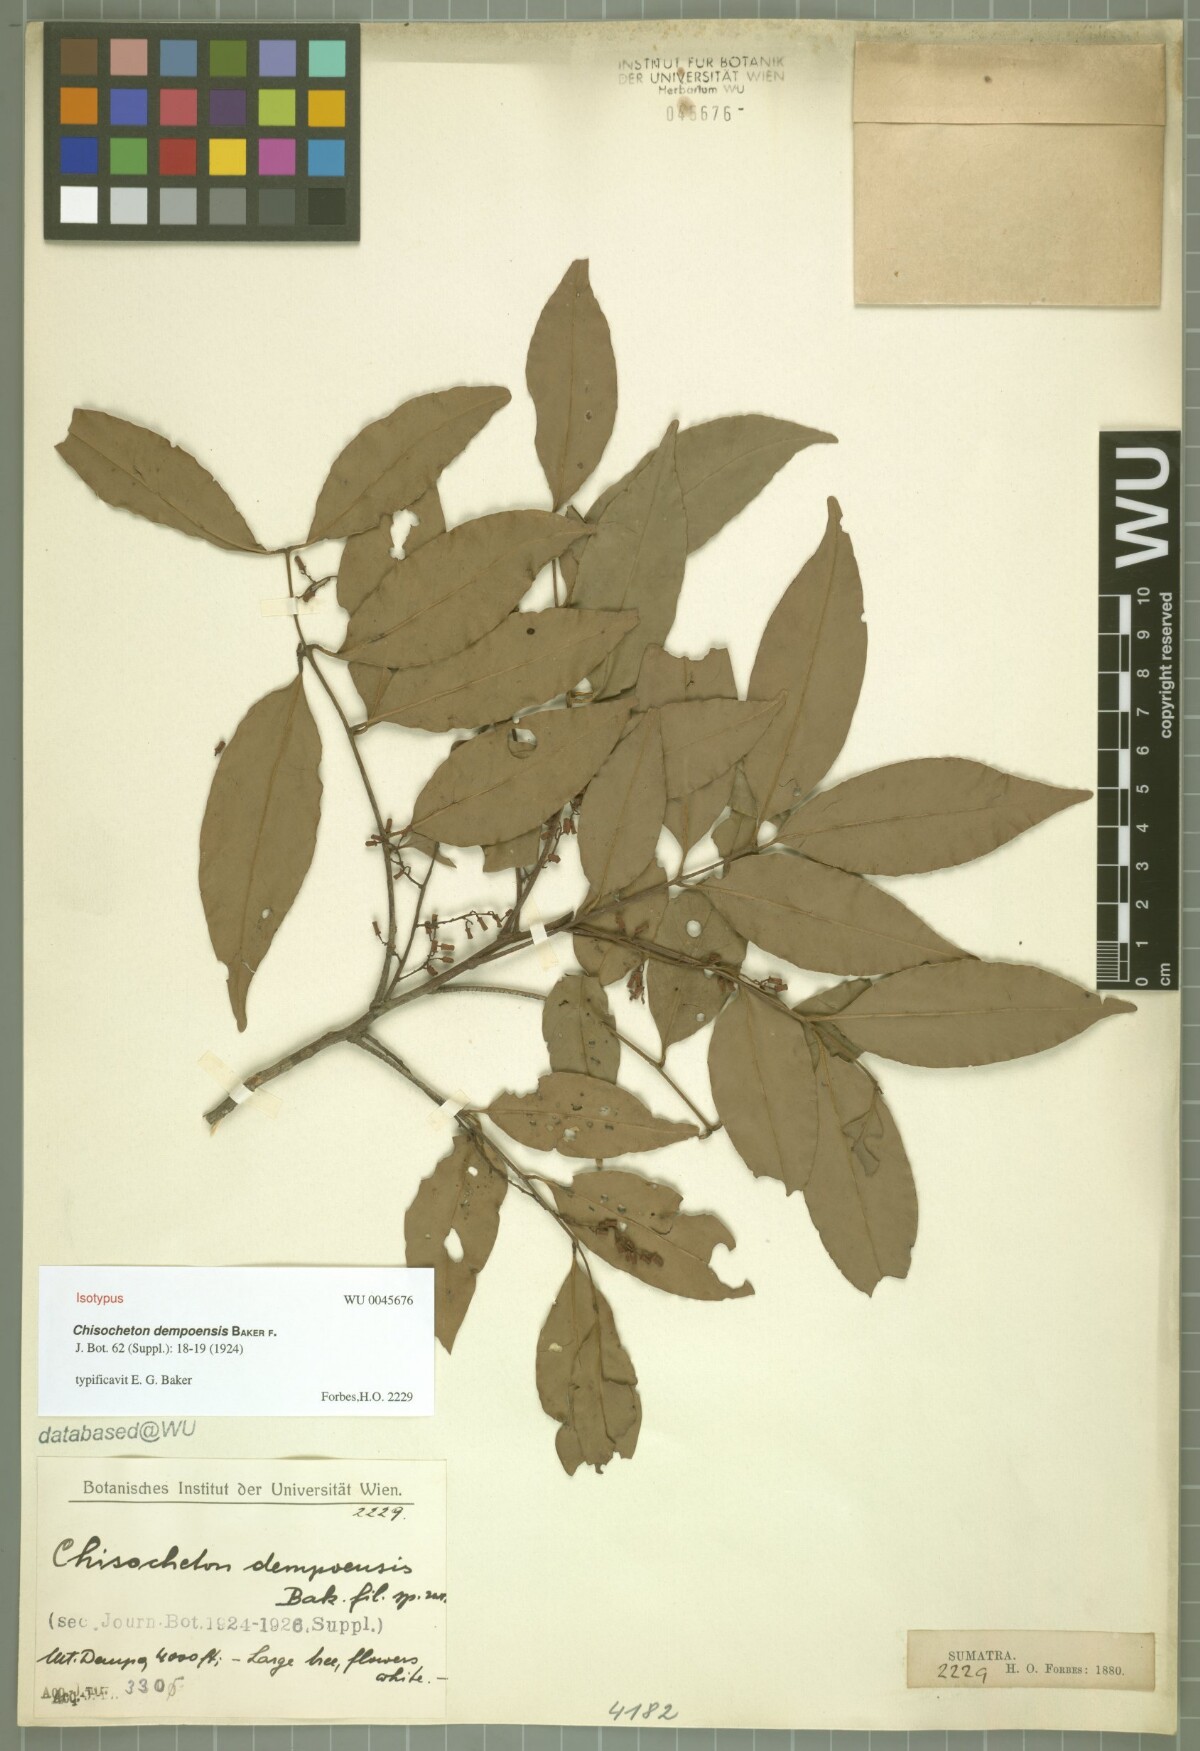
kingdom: Plantae
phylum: Tracheophyta
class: Magnoliopsida
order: Sapindales
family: Meliaceae
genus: Prasoxylon
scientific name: Prasoxylon alliaceum
